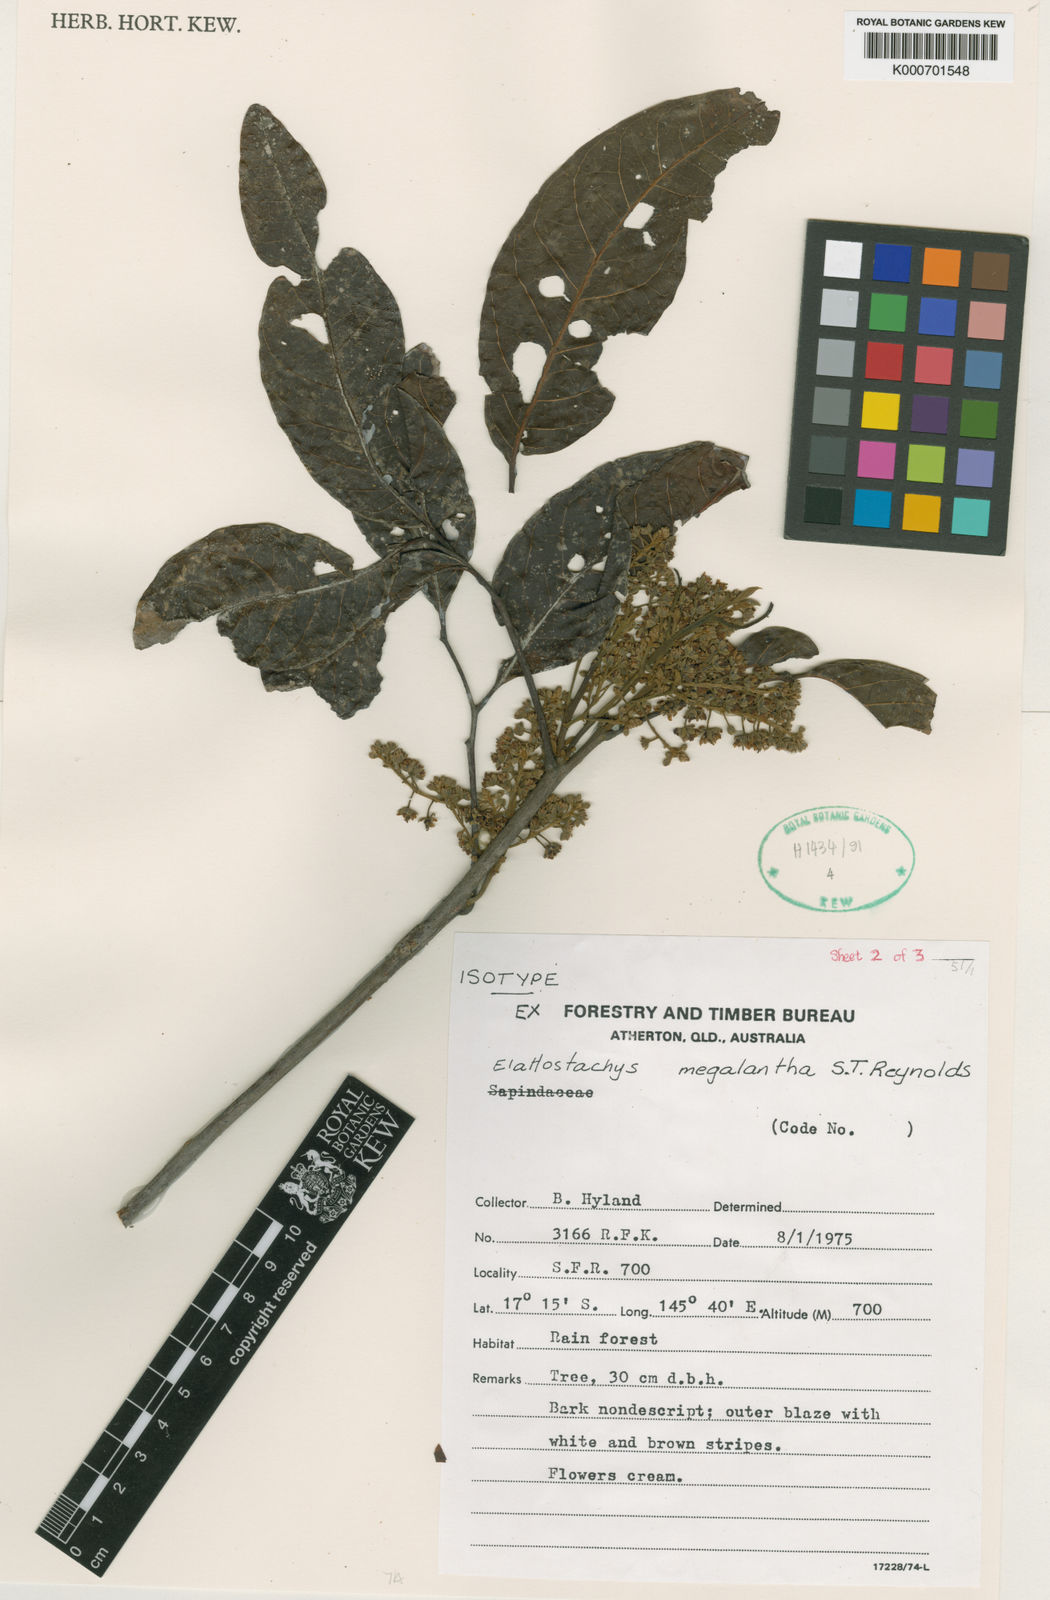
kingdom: Plantae
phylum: Tracheophyta
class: Magnoliopsida
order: Sapindales
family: Sapindaceae
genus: Elattostachys
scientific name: Elattostachys megalantha
